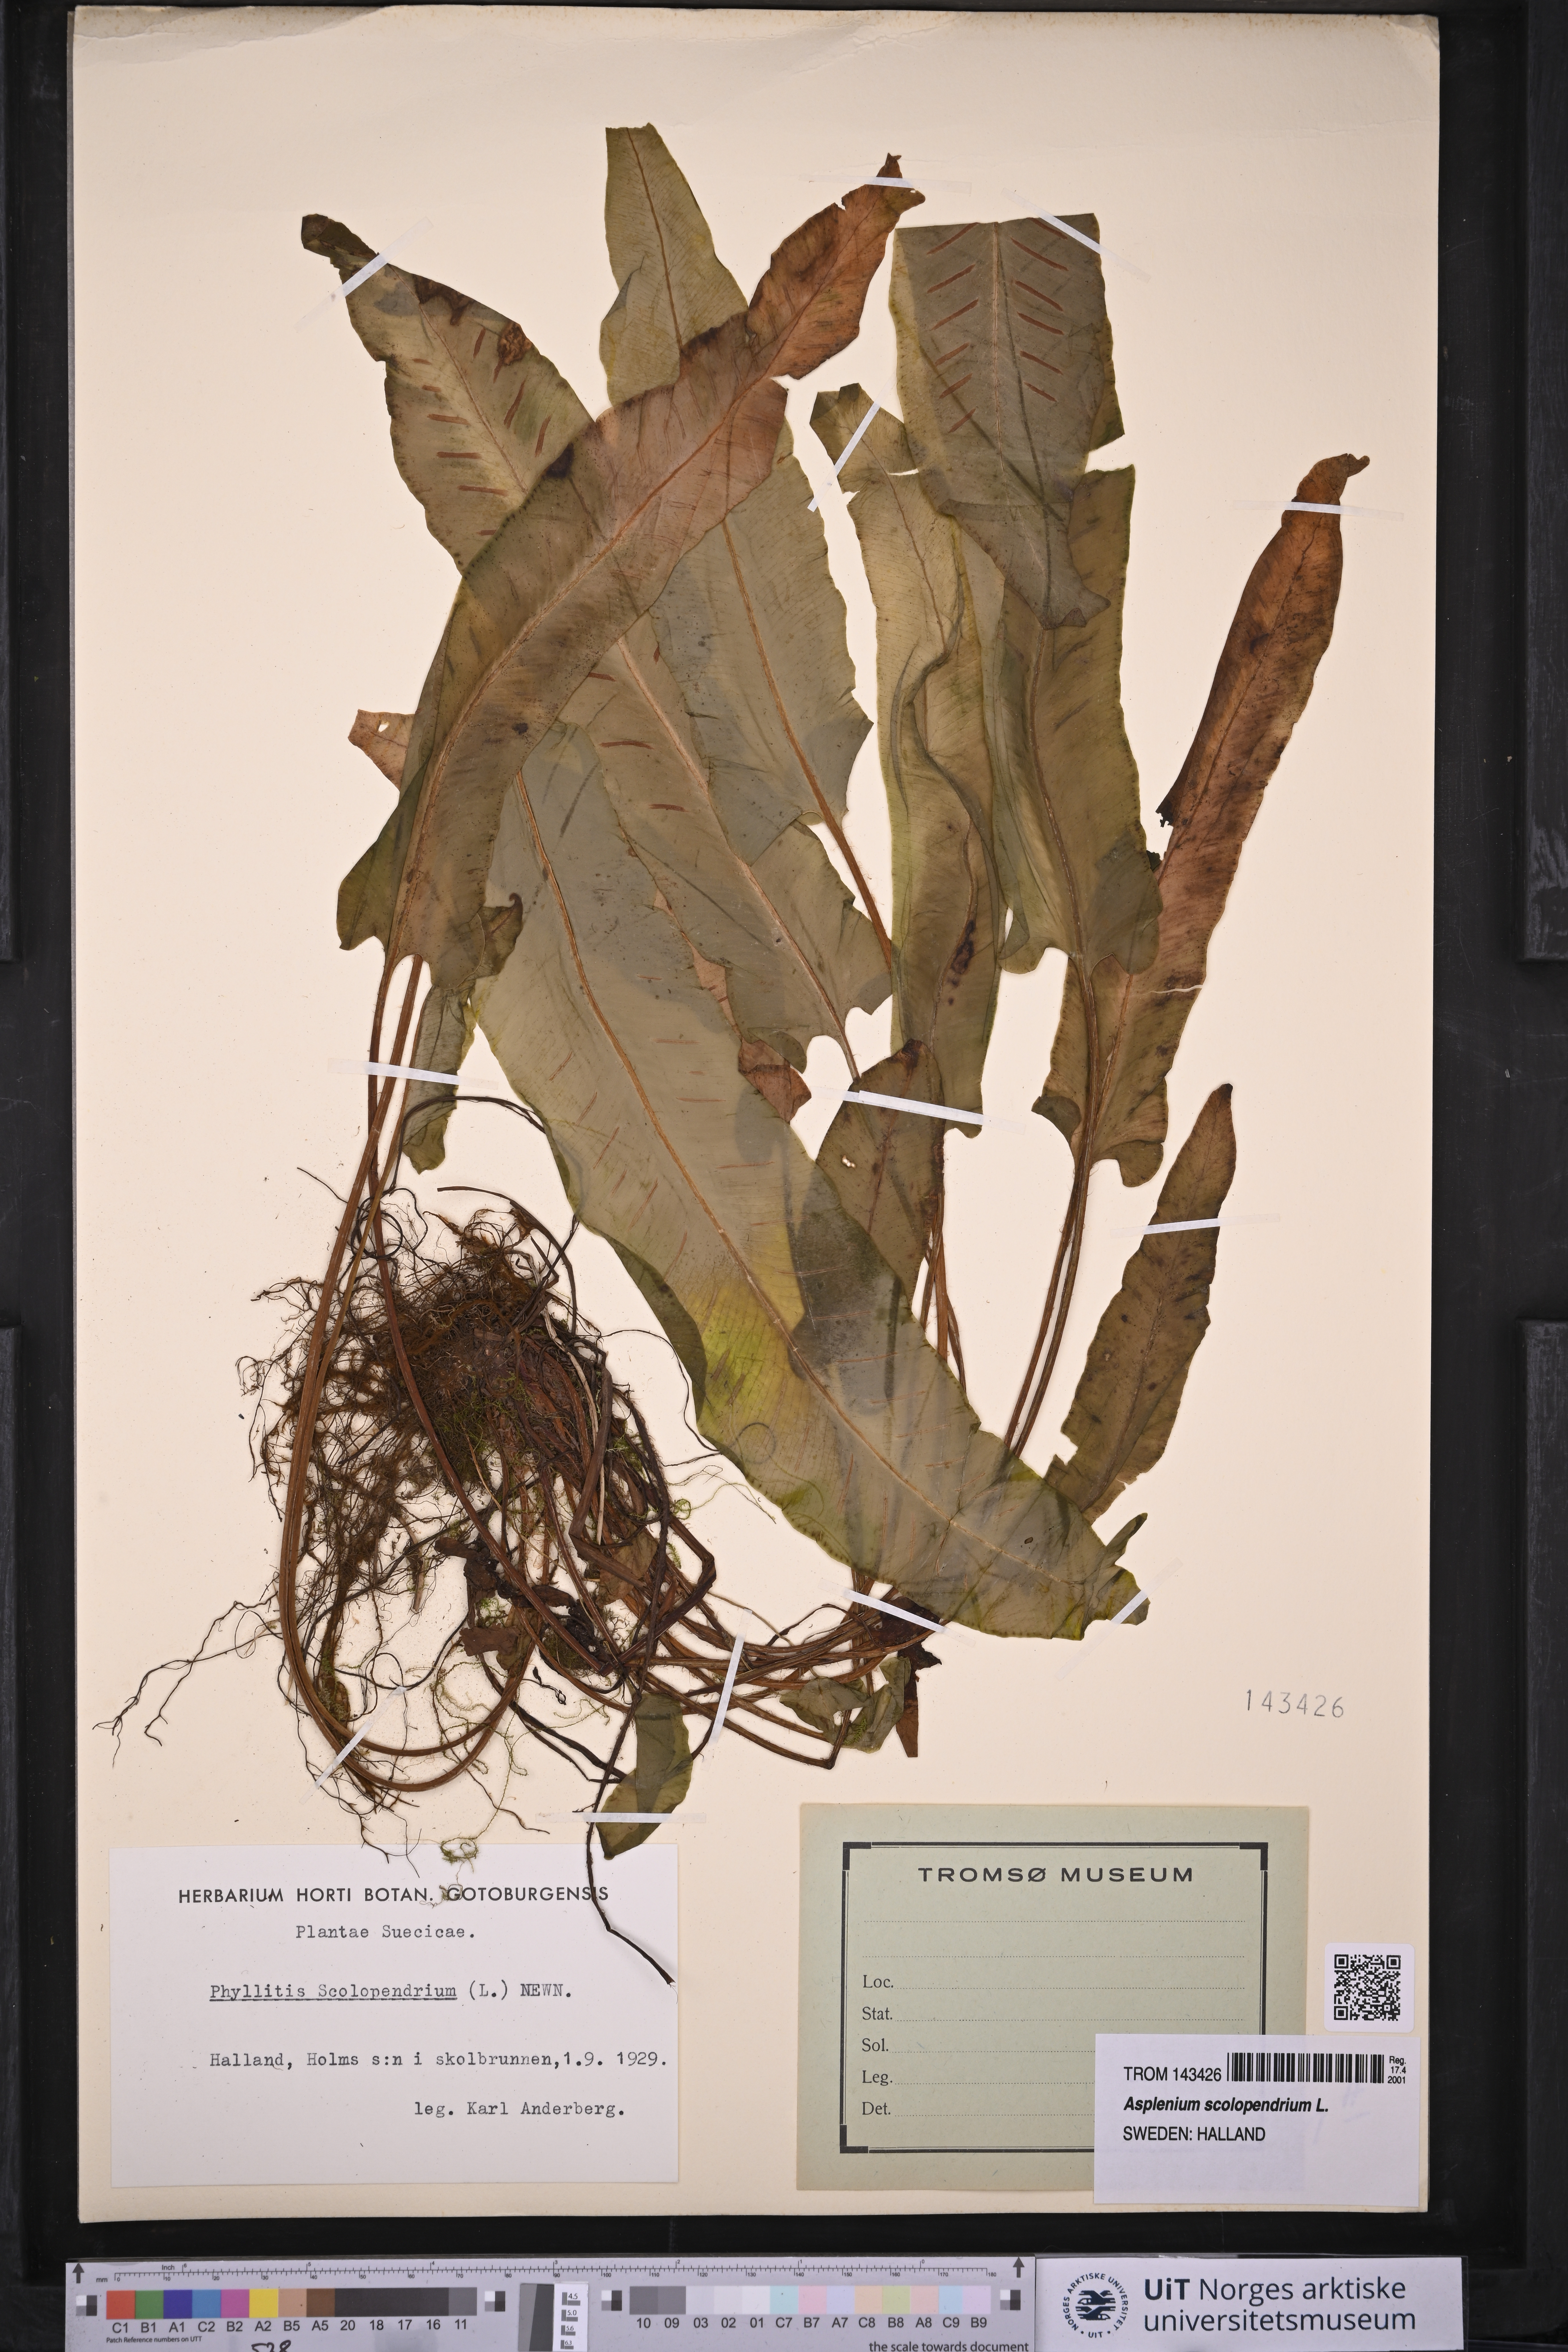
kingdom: Plantae
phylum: Tracheophyta
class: Polypodiopsida
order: Polypodiales
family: Aspleniaceae
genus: Asplenium
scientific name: Asplenium scolopendrium
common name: Hart's-tongue fern
